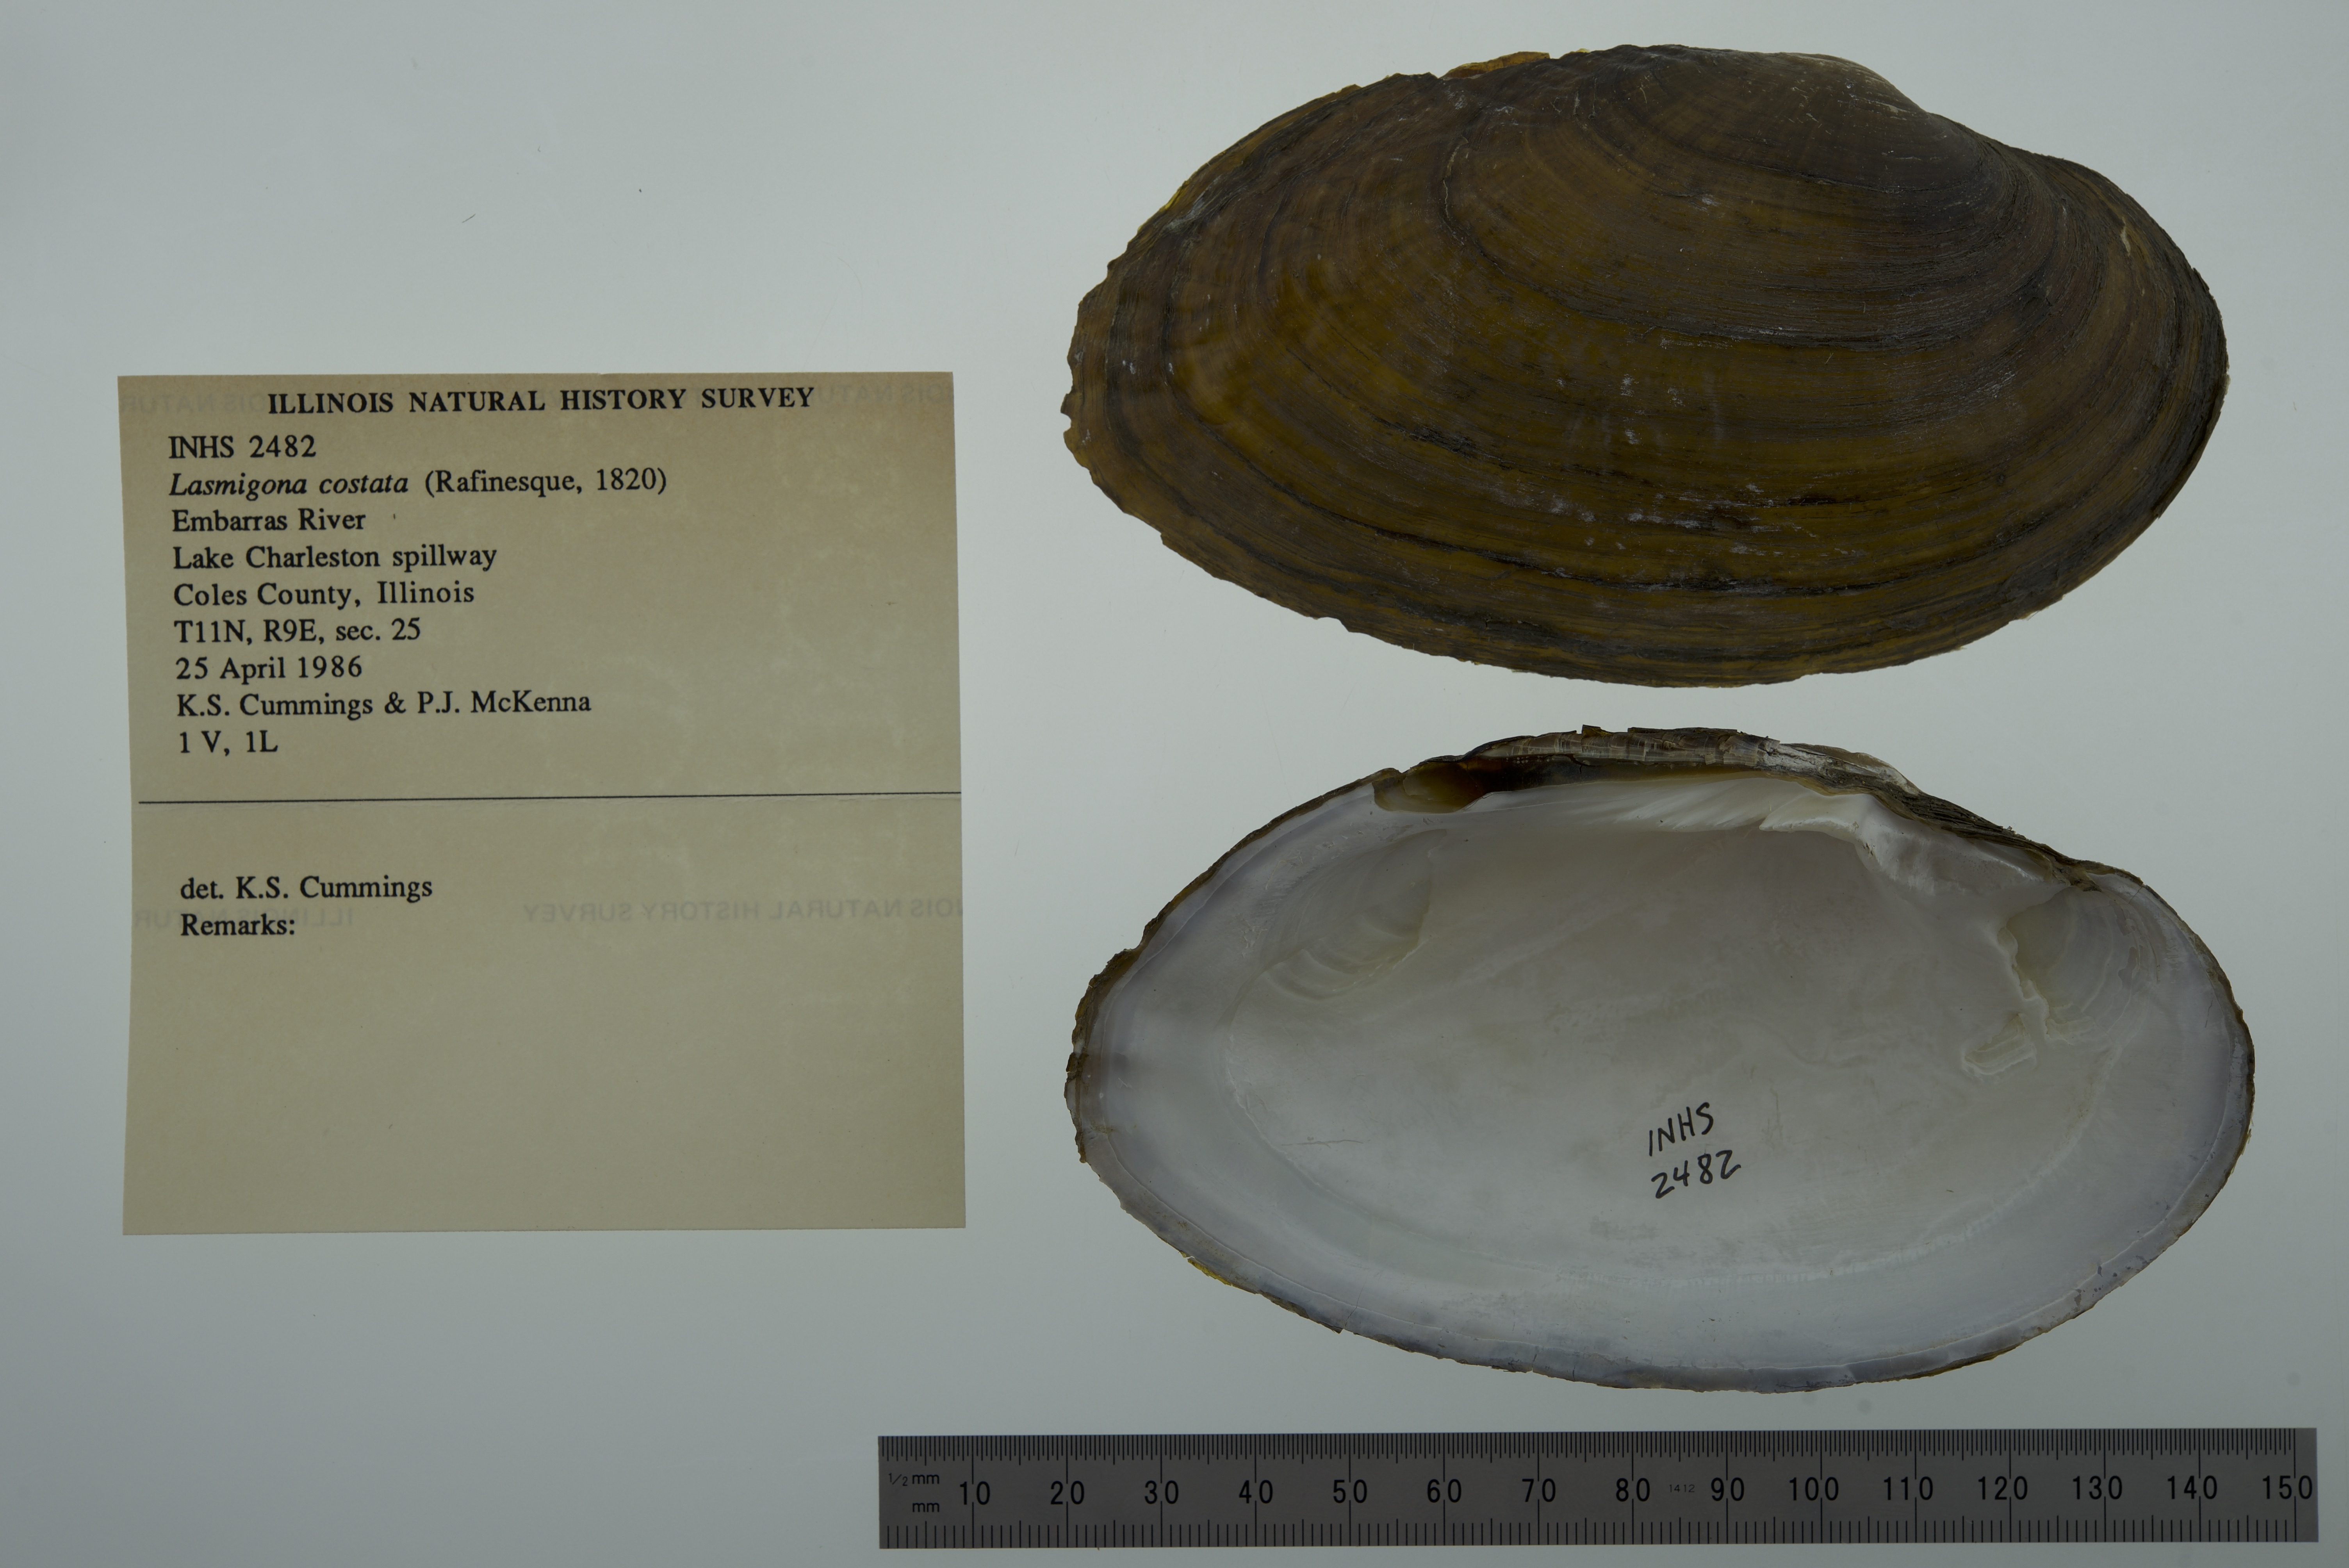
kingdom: Animalia
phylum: Mollusca
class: Bivalvia
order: Unionida
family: Unionidae
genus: Lasmigona
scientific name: Lasmigona costata
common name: Flutedshell
